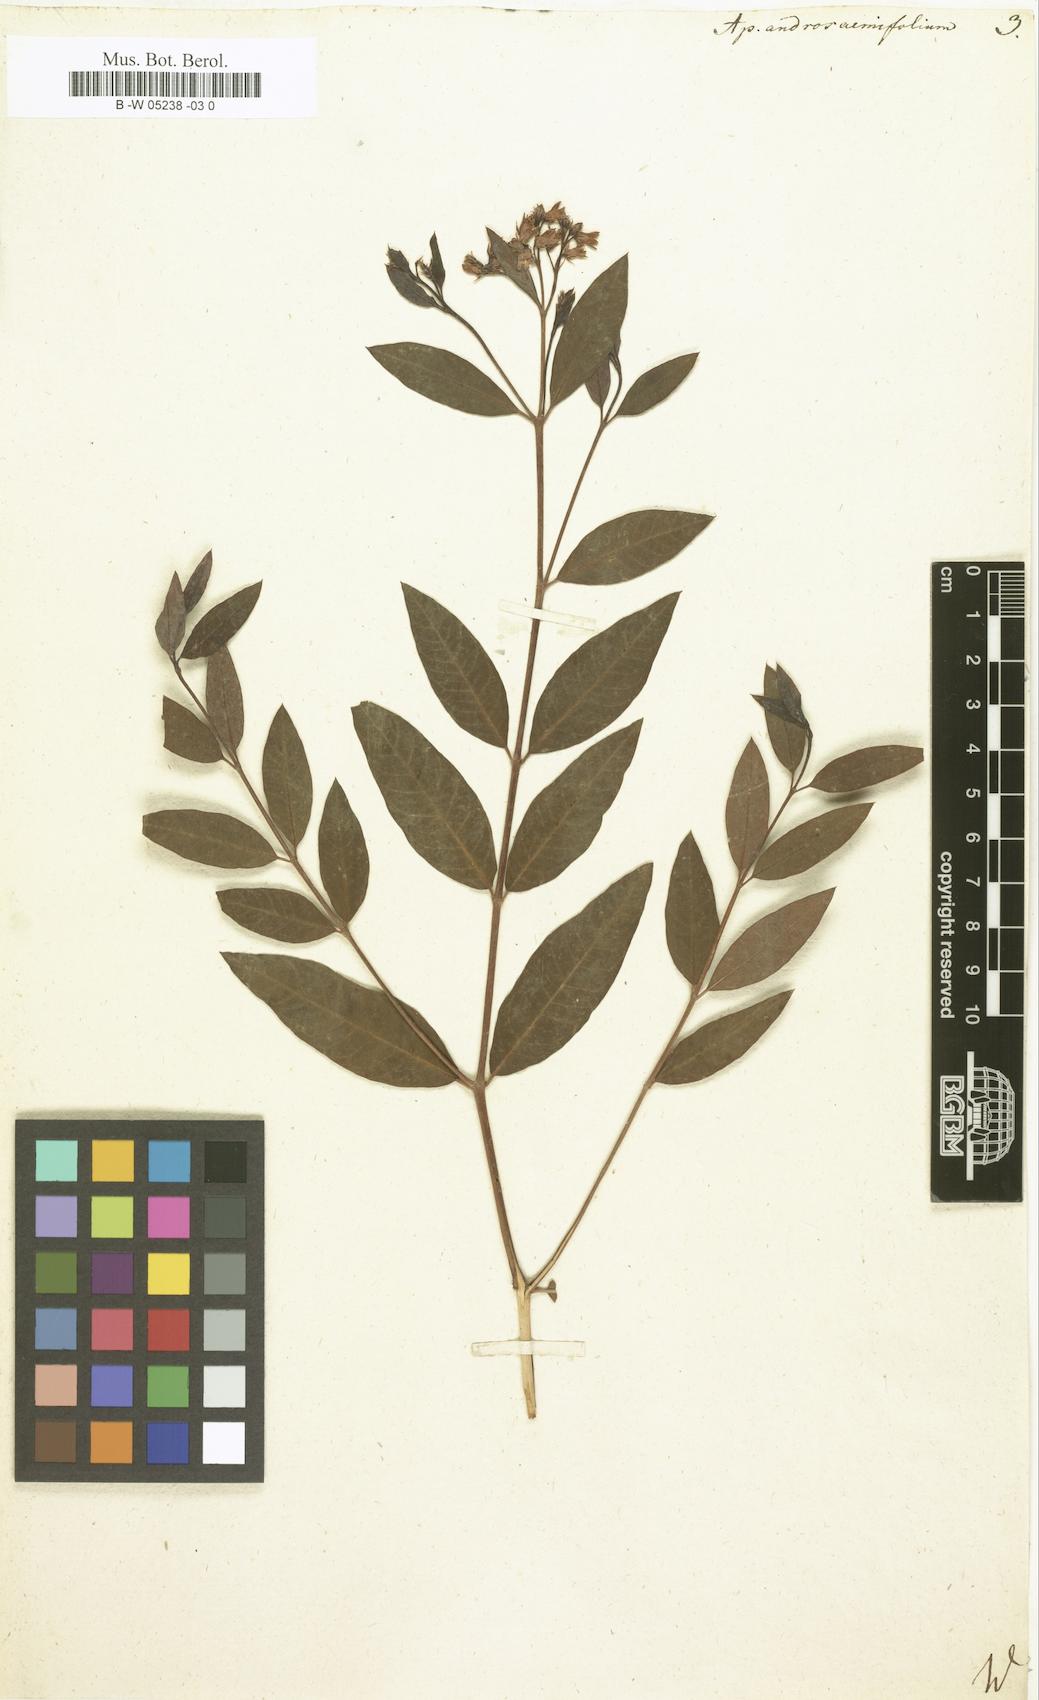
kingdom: Plantae
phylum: Tracheophyta
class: Magnoliopsida
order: Gentianales
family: Apocynaceae
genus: Apocynum
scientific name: Apocynum androsaemifolium
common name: Spreading dogbane
